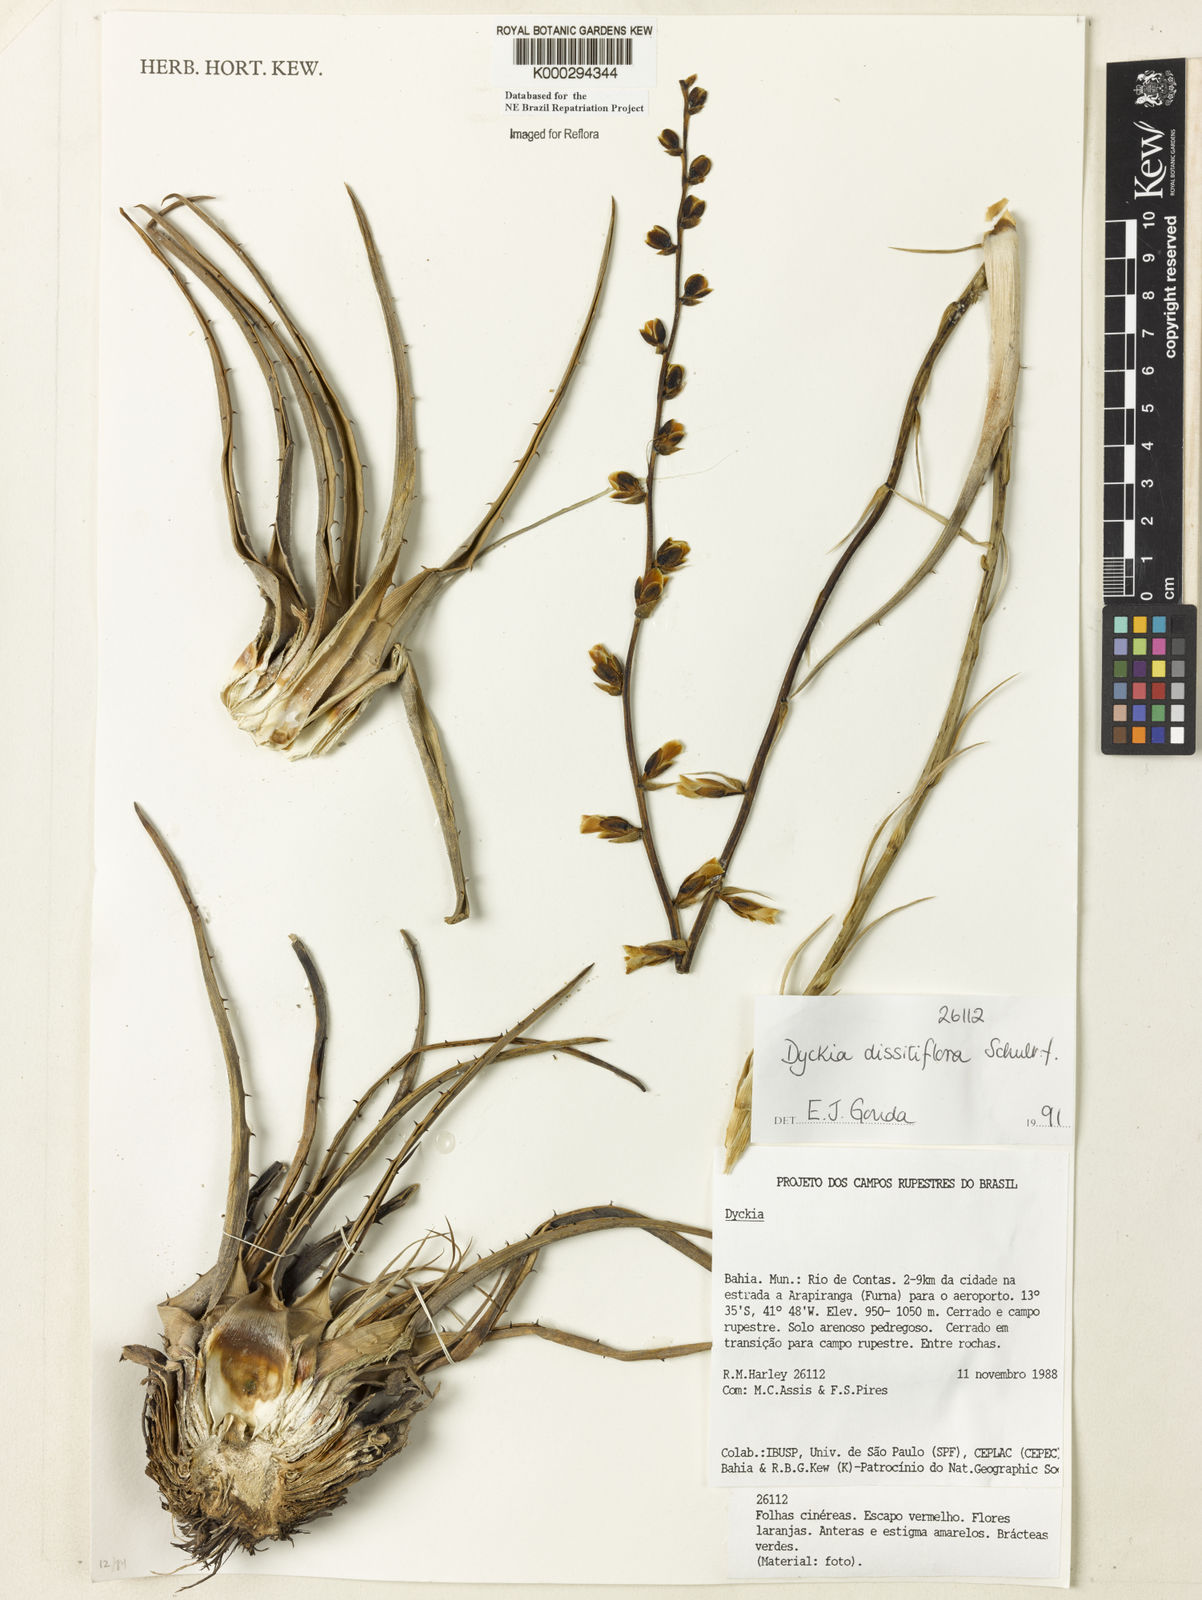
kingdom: Plantae
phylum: Tracheophyta
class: Liliopsida
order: Poales
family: Bromeliaceae
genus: Dyckia
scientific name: Dyckia dissitiflora
